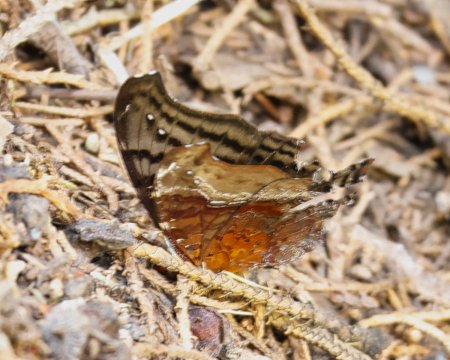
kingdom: Animalia
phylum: Arthropoda
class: Insecta
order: Lepidoptera
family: Nymphalidae
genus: Hypanartia
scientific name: Hypanartia dione
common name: Banded Mapwing
